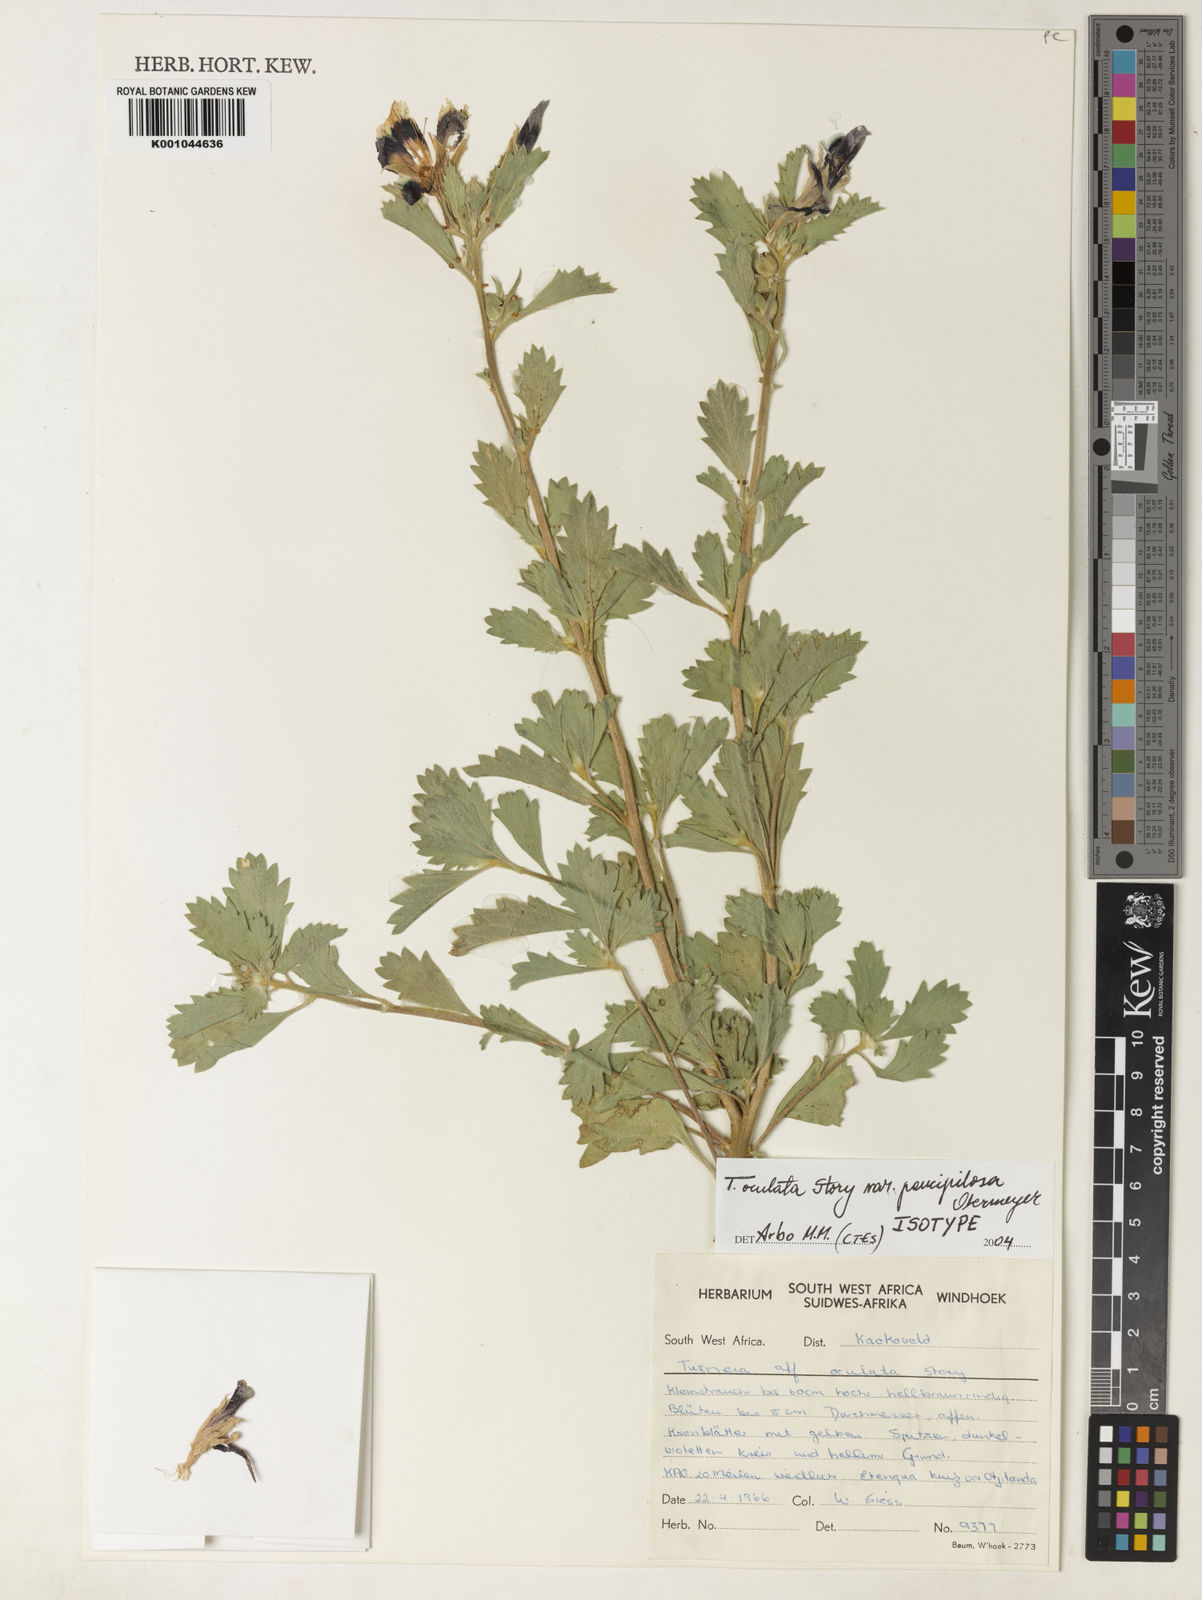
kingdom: Plantae
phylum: Tracheophyta
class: Magnoliopsida
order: Malpighiales
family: Turneraceae
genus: Turnera
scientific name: Turnera oculata
